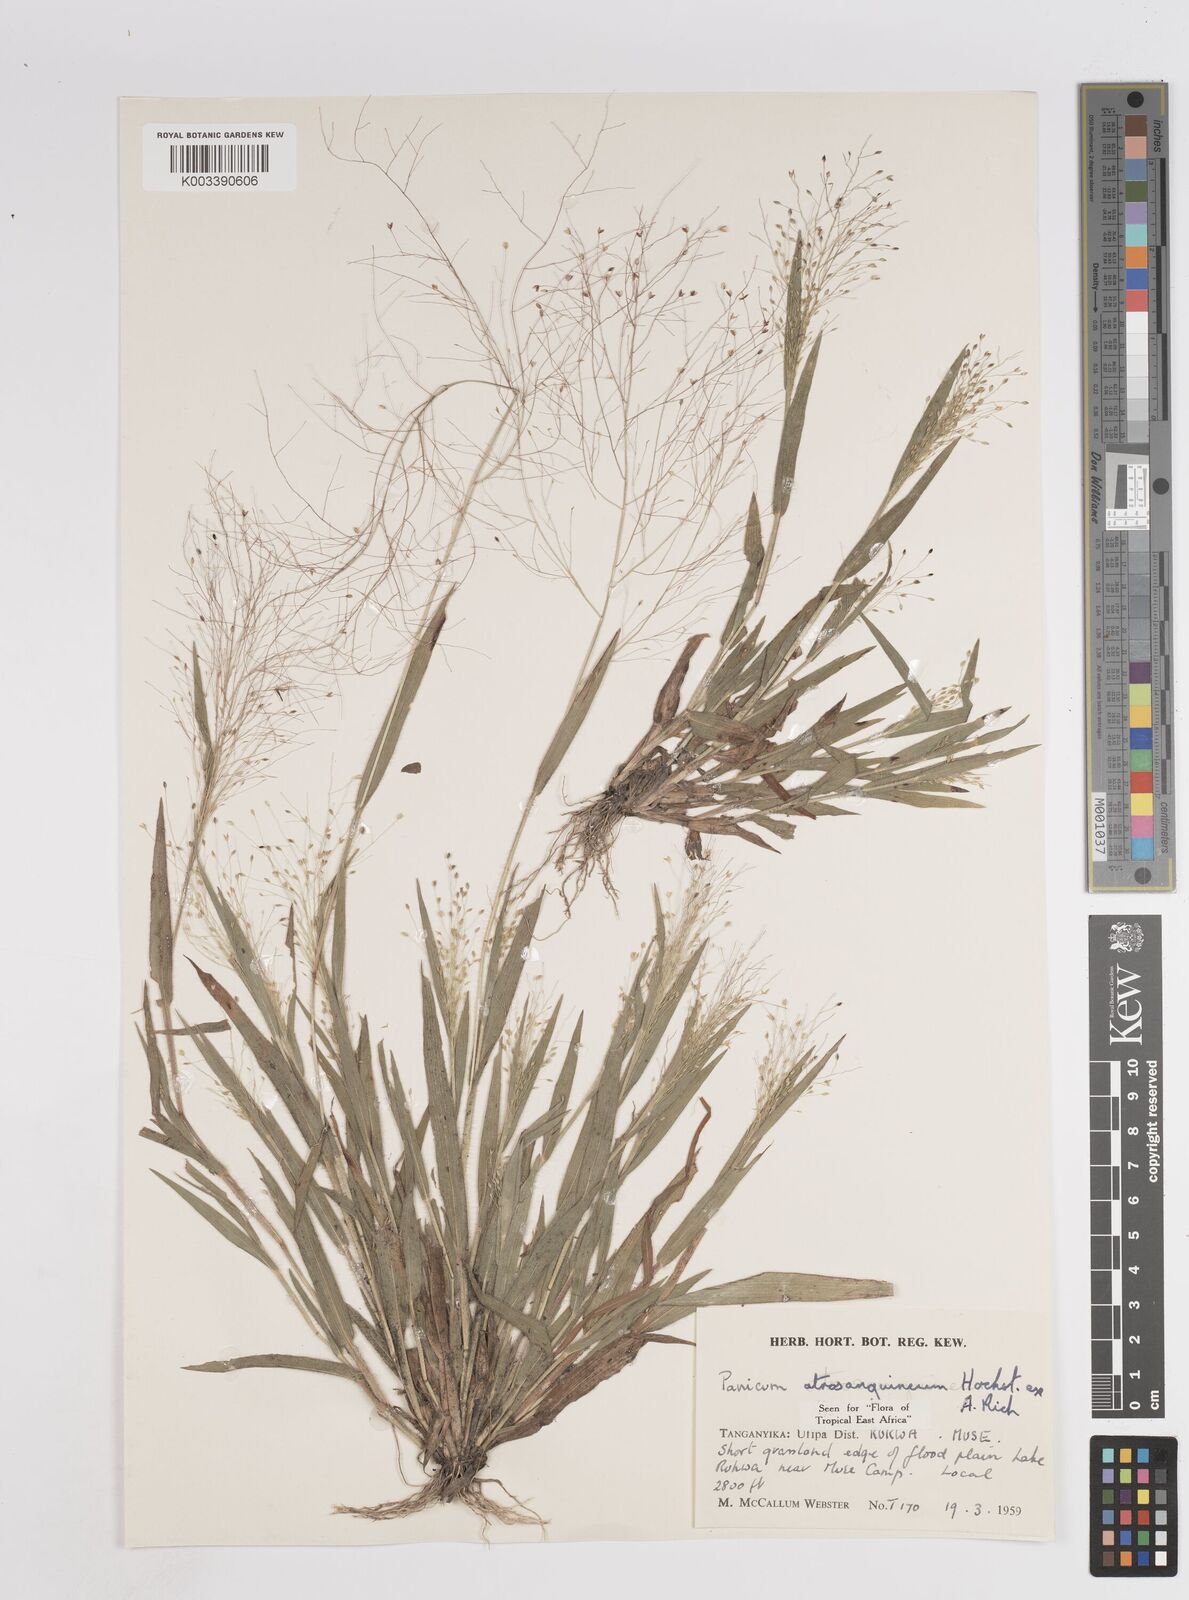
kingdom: Plantae
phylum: Tracheophyta
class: Liliopsida
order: Poales
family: Poaceae
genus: Panicum
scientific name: Panicum atrosanguineum
